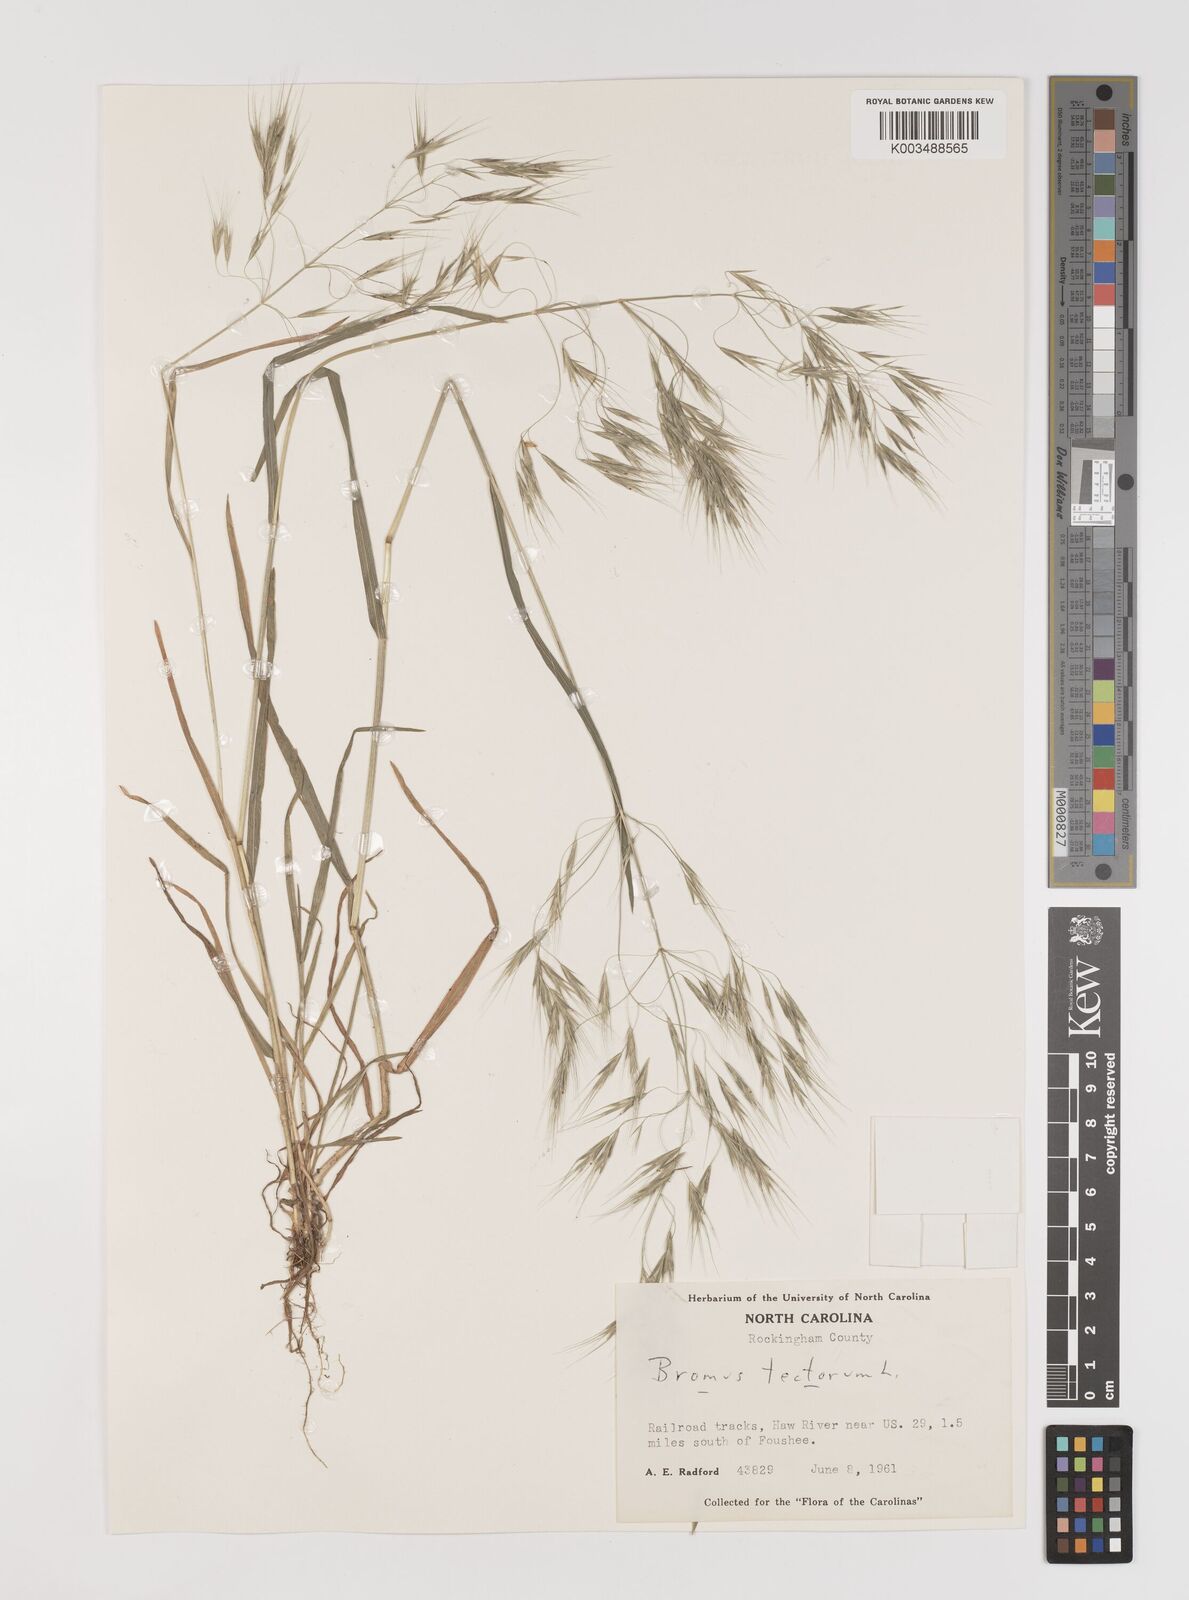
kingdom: Plantae
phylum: Tracheophyta
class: Liliopsida
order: Poales
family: Poaceae
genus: Bromus
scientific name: Bromus tectorum
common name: Cheatgrass
